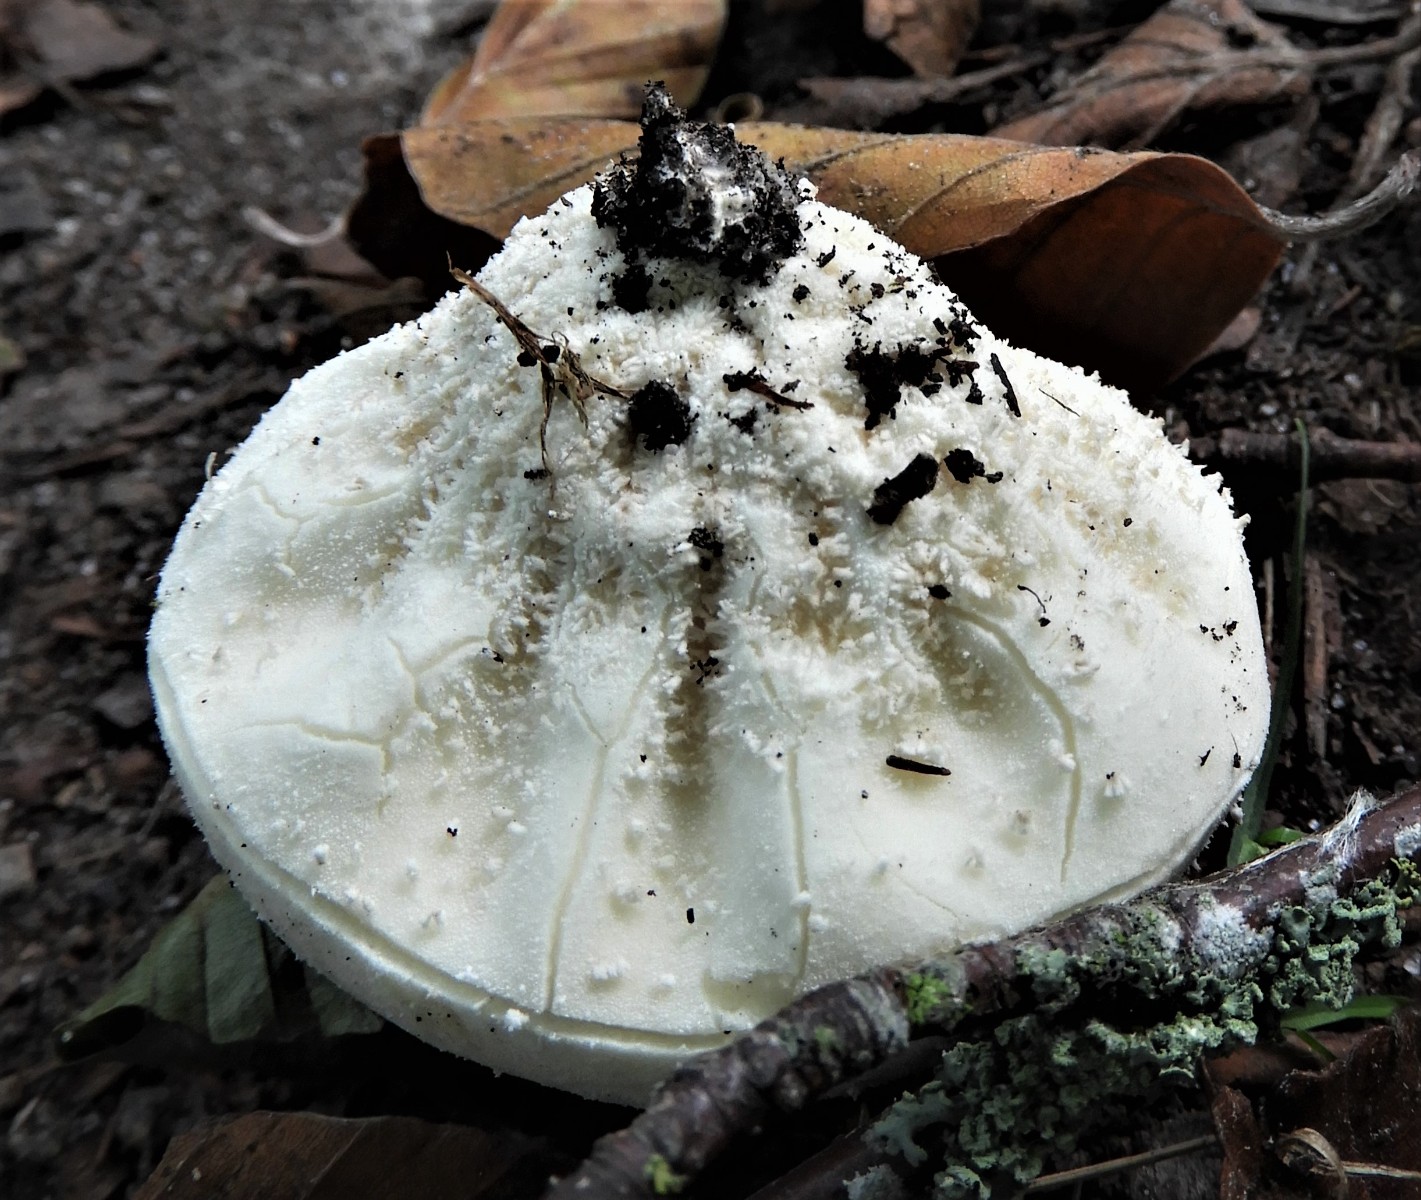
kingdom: Fungi
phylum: Basidiomycota
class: Agaricomycetes
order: Agaricales
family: Lycoperdaceae
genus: Lycoperdon
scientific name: Lycoperdon pratense
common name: flad støvbold
